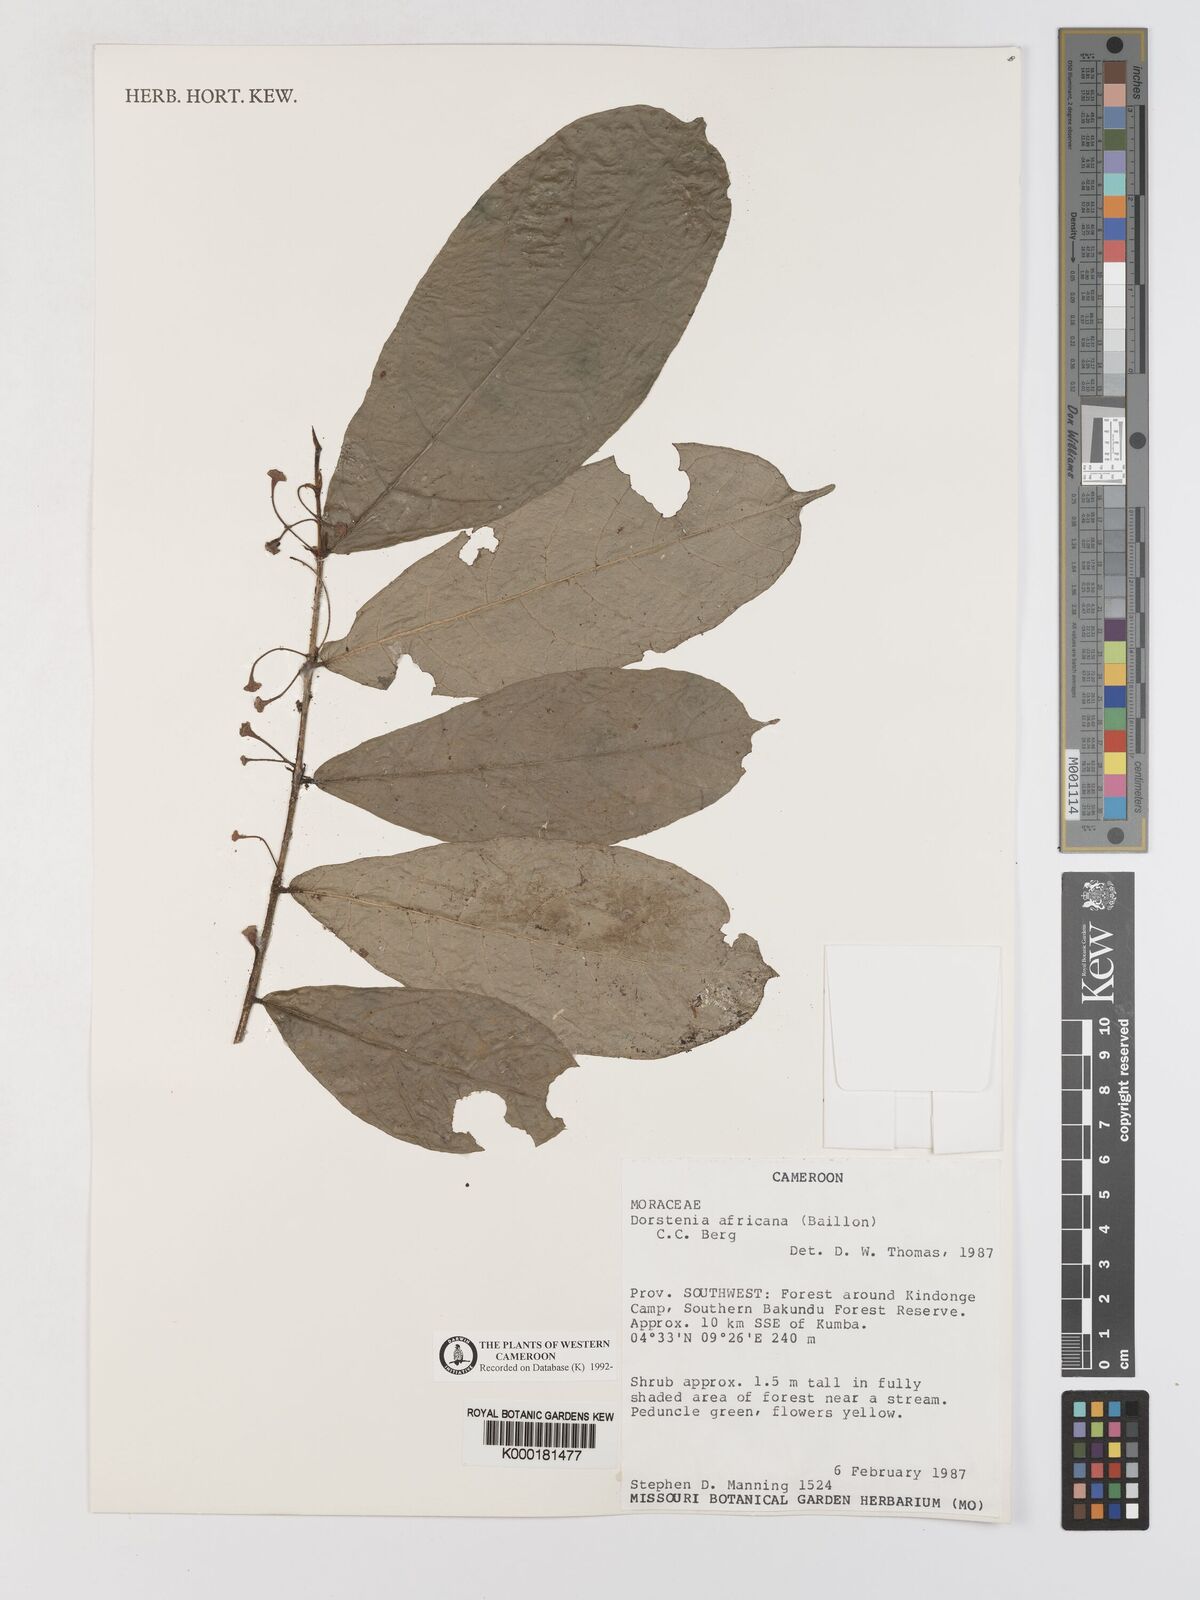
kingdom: Plantae
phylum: Tracheophyta
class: Magnoliopsida
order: Rosales
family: Moraceae
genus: Dorstenia
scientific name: Dorstenia africana
